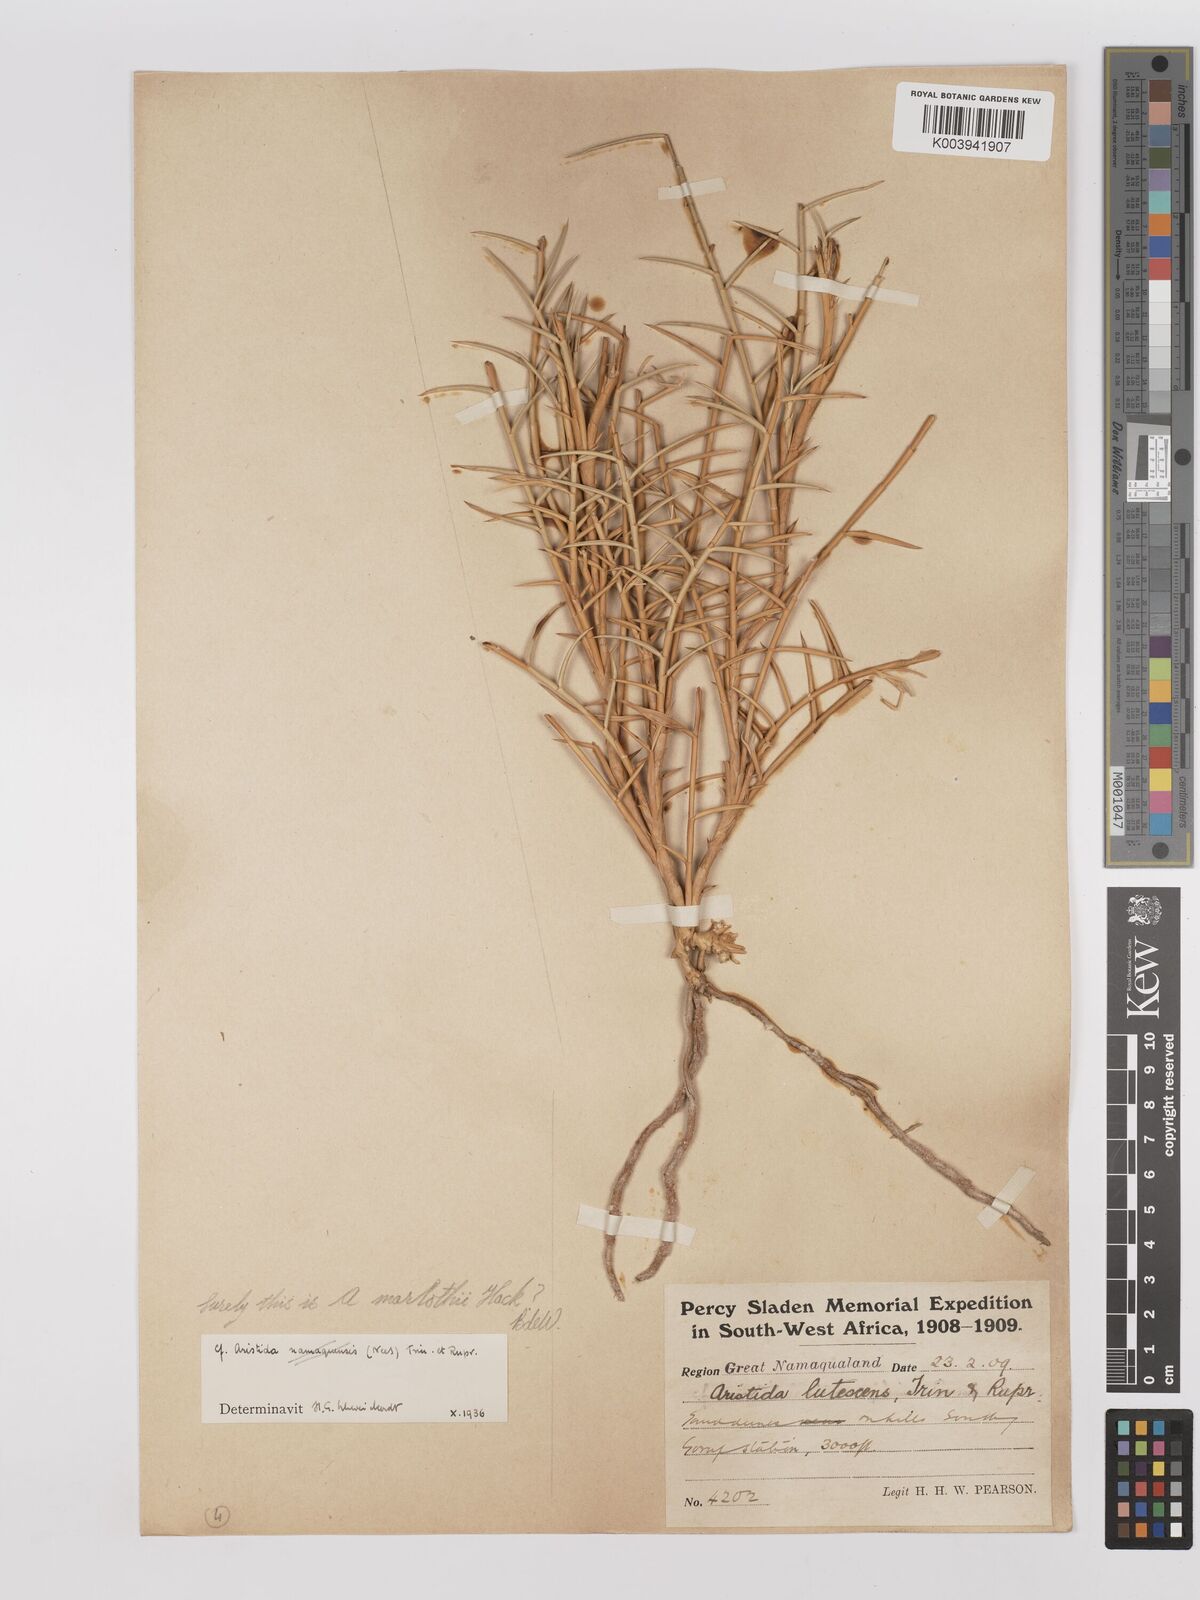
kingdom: Plantae
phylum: Tracheophyta
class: Liliopsida
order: Poales
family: Poaceae
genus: Stipagrostis
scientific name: Stipagrostis lutescens
